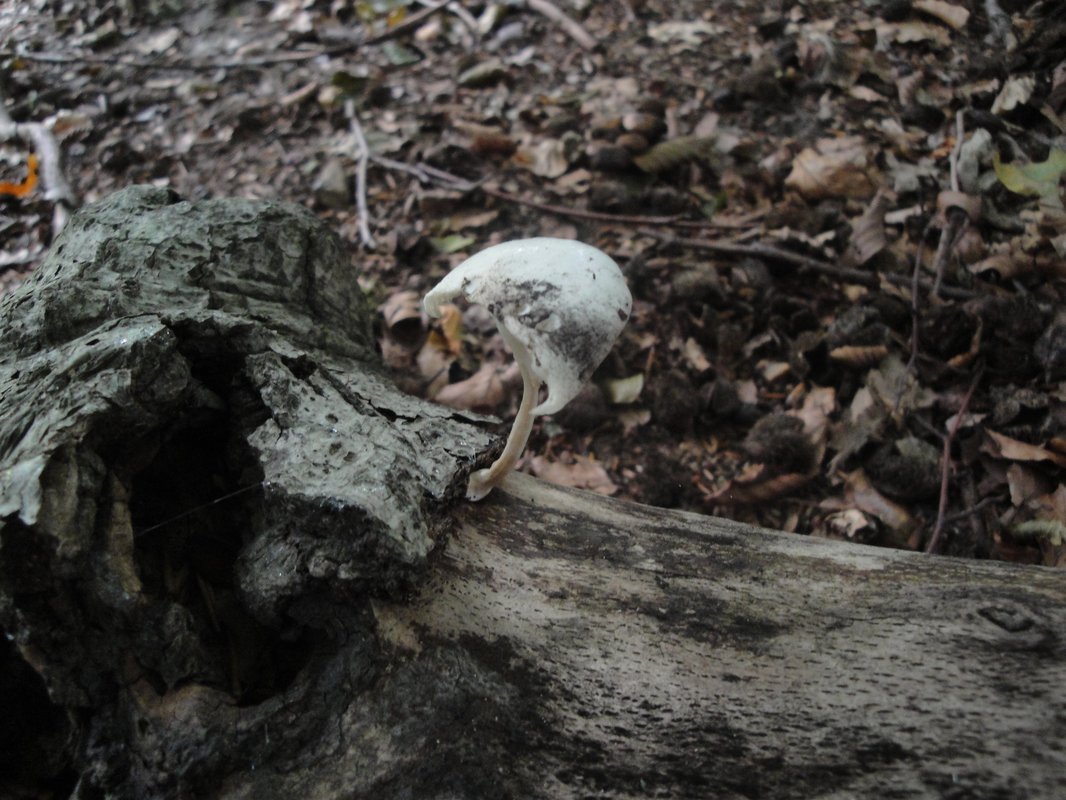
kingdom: Fungi
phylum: Basidiomycota
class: Agaricomycetes
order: Agaricales
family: Physalacriaceae
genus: Mucidula
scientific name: Mucidula mucida
